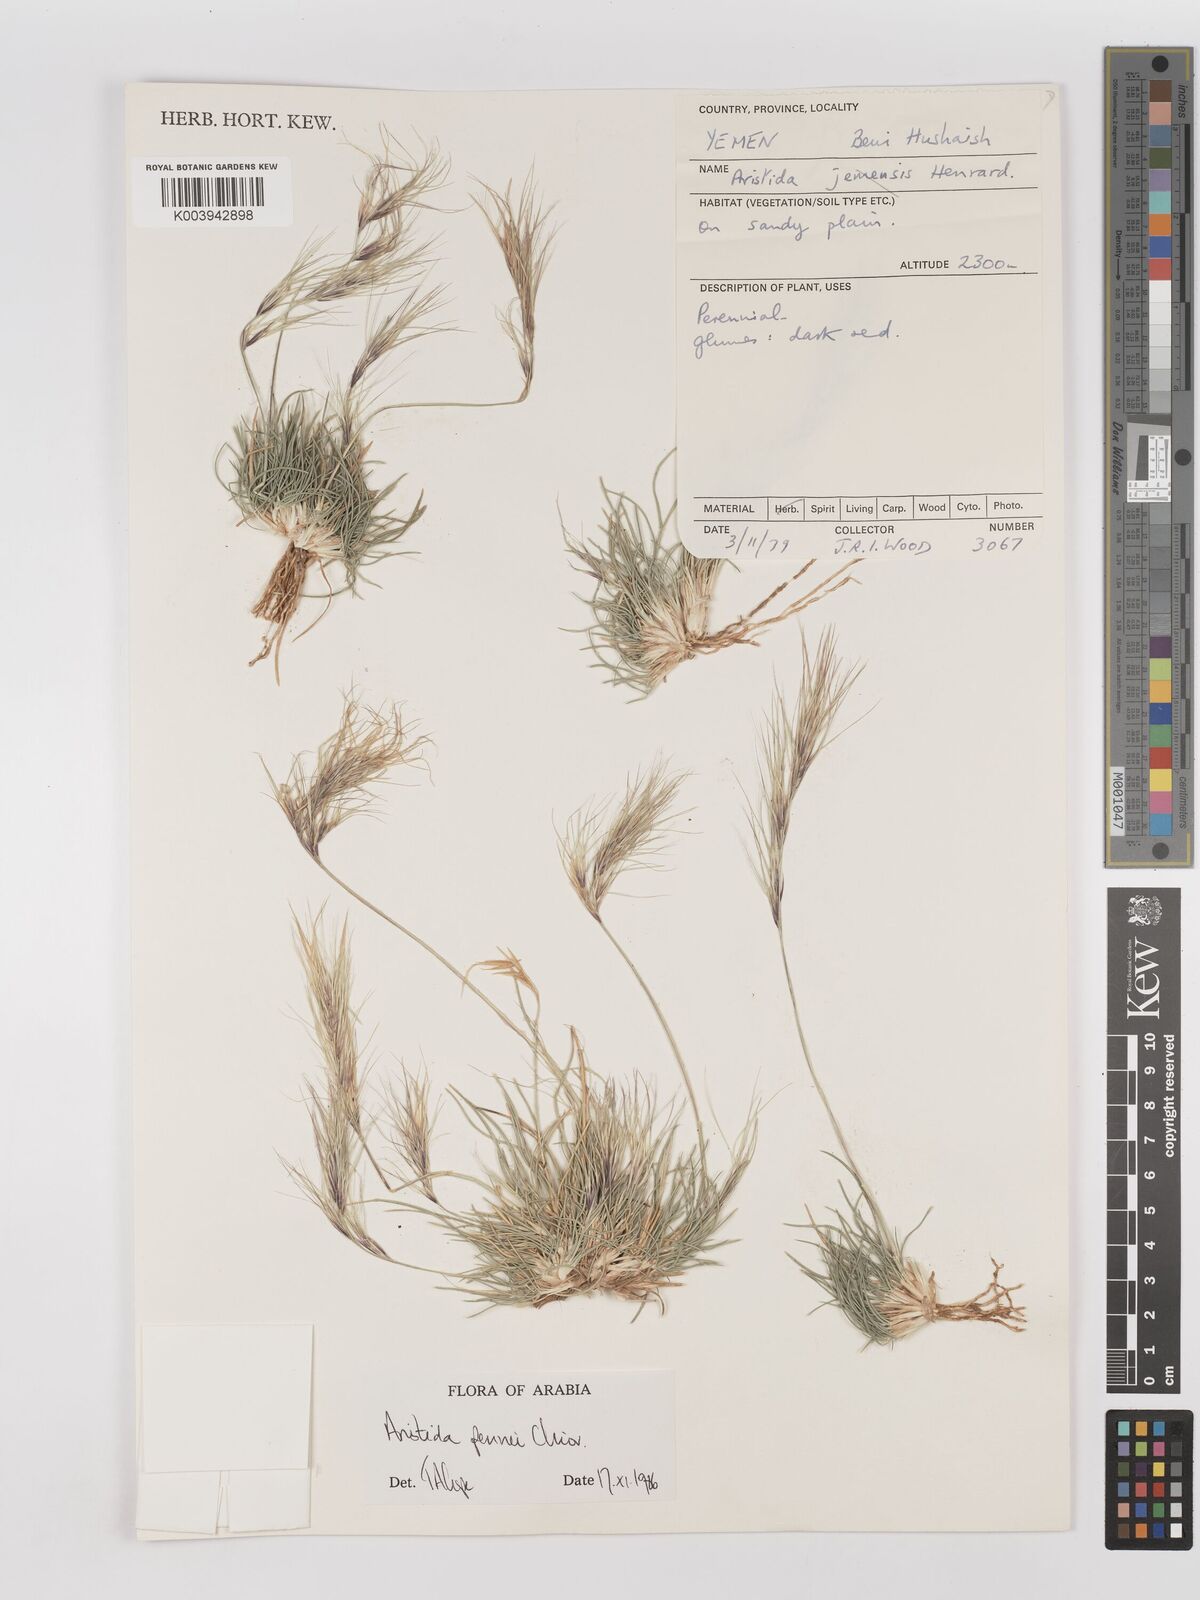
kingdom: Plantae
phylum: Tracheophyta
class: Liliopsida
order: Poales
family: Poaceae
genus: Aristida
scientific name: Aristida pennei
